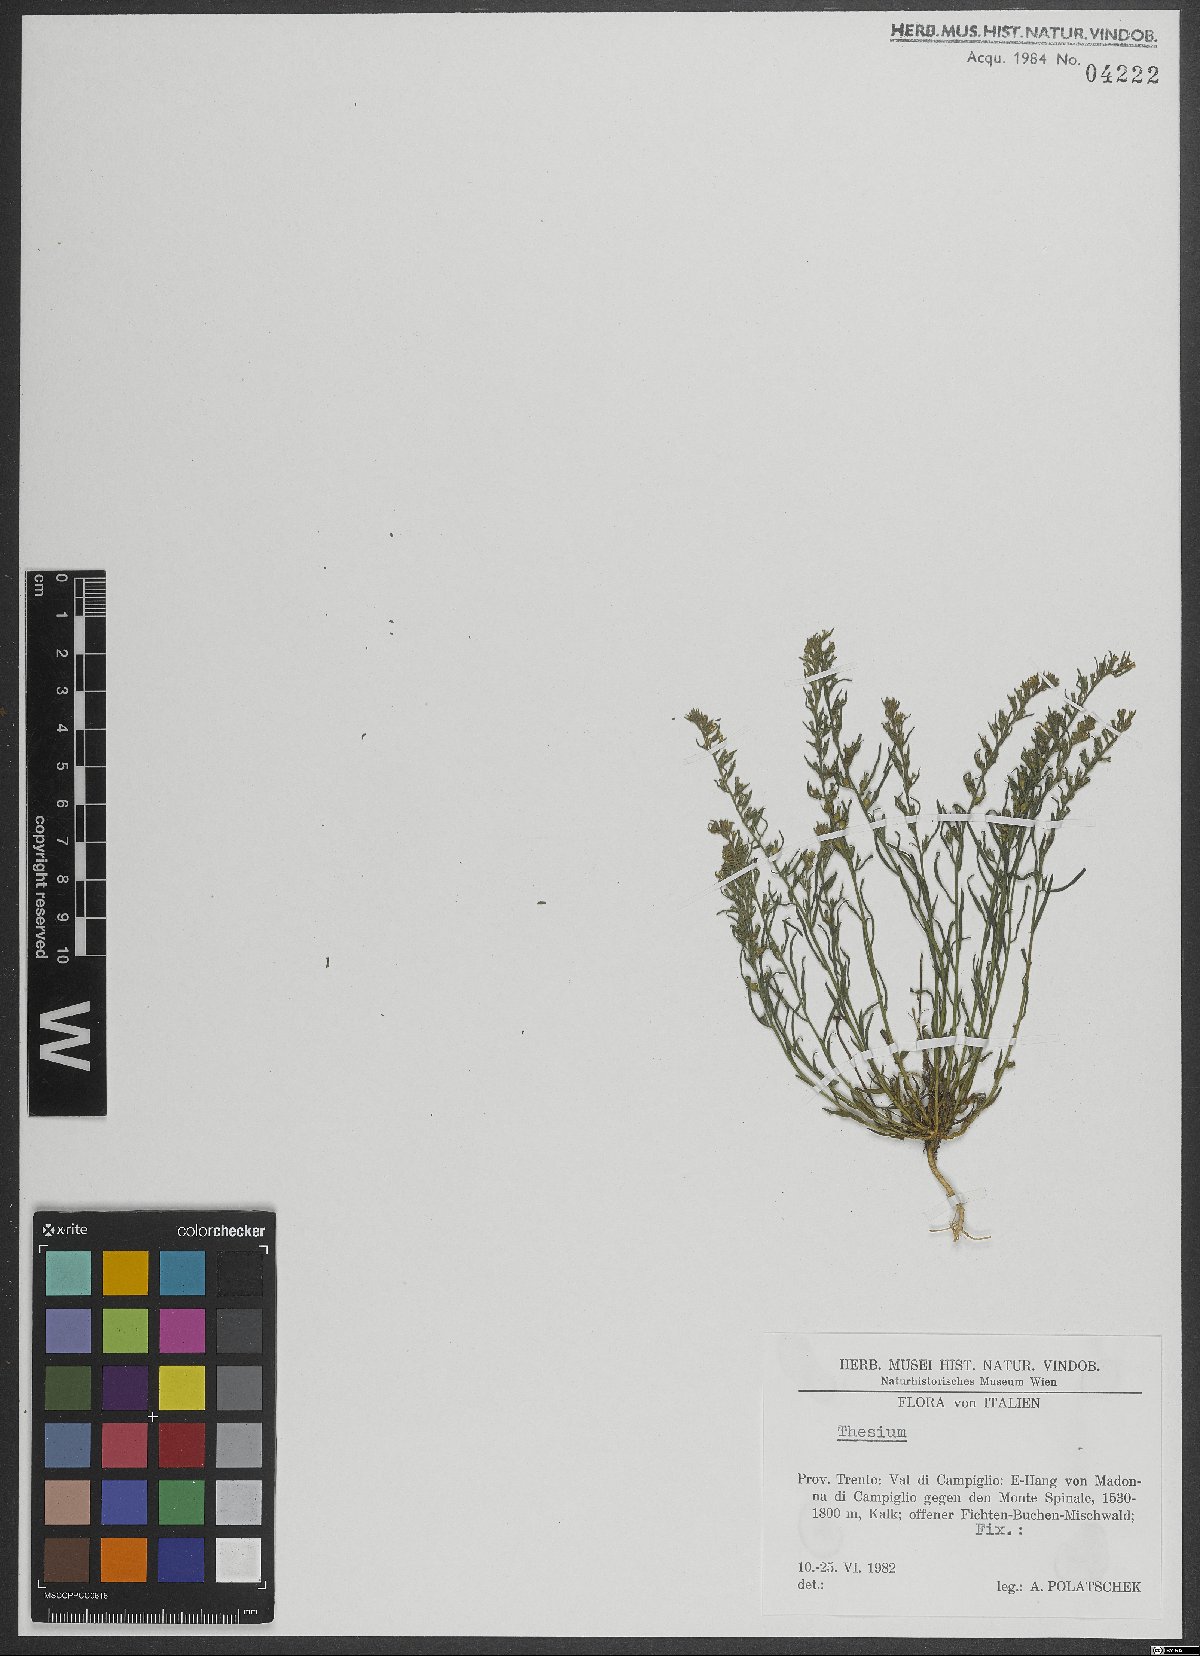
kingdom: Plantae
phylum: Tracheophyta
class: Magnoliopsida
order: Santalales
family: Thesiaceae
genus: Thesium
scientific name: Thesium
